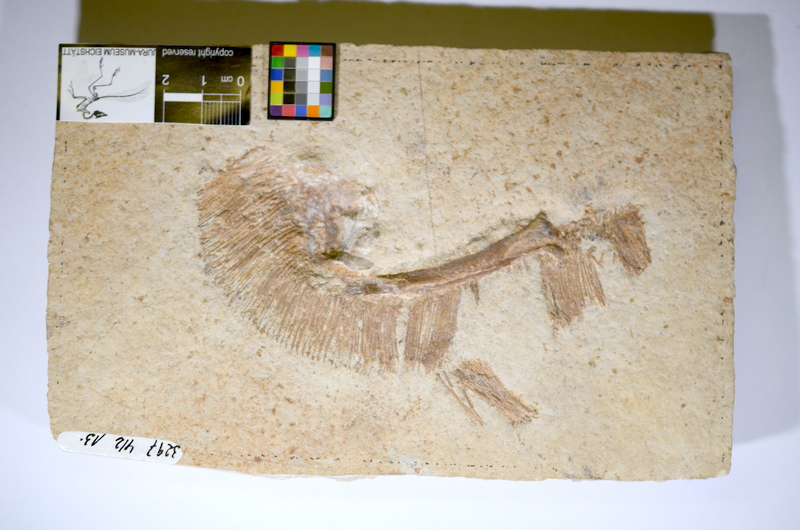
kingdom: Animalia
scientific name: Animalia
